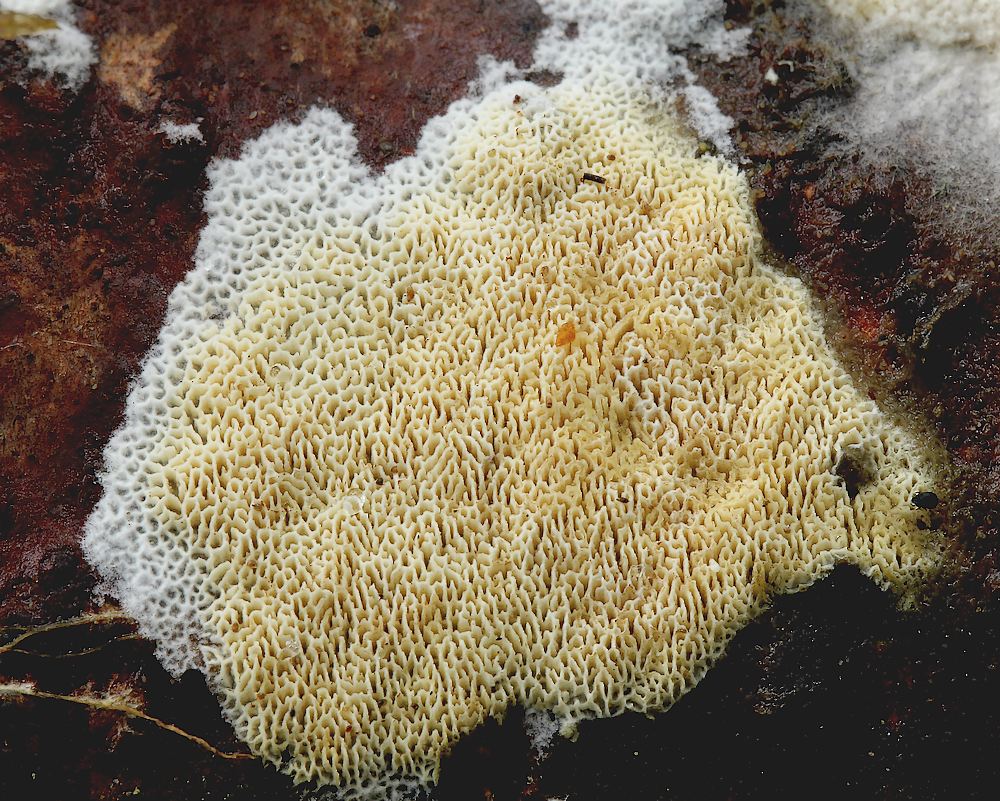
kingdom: Fungi
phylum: Basidiomycota
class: Agaricomycetes
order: Hymenochaetales
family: Schizoporaceae
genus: Xylodon
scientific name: Xylodon subtropicus
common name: labyrint-tandsvamp
